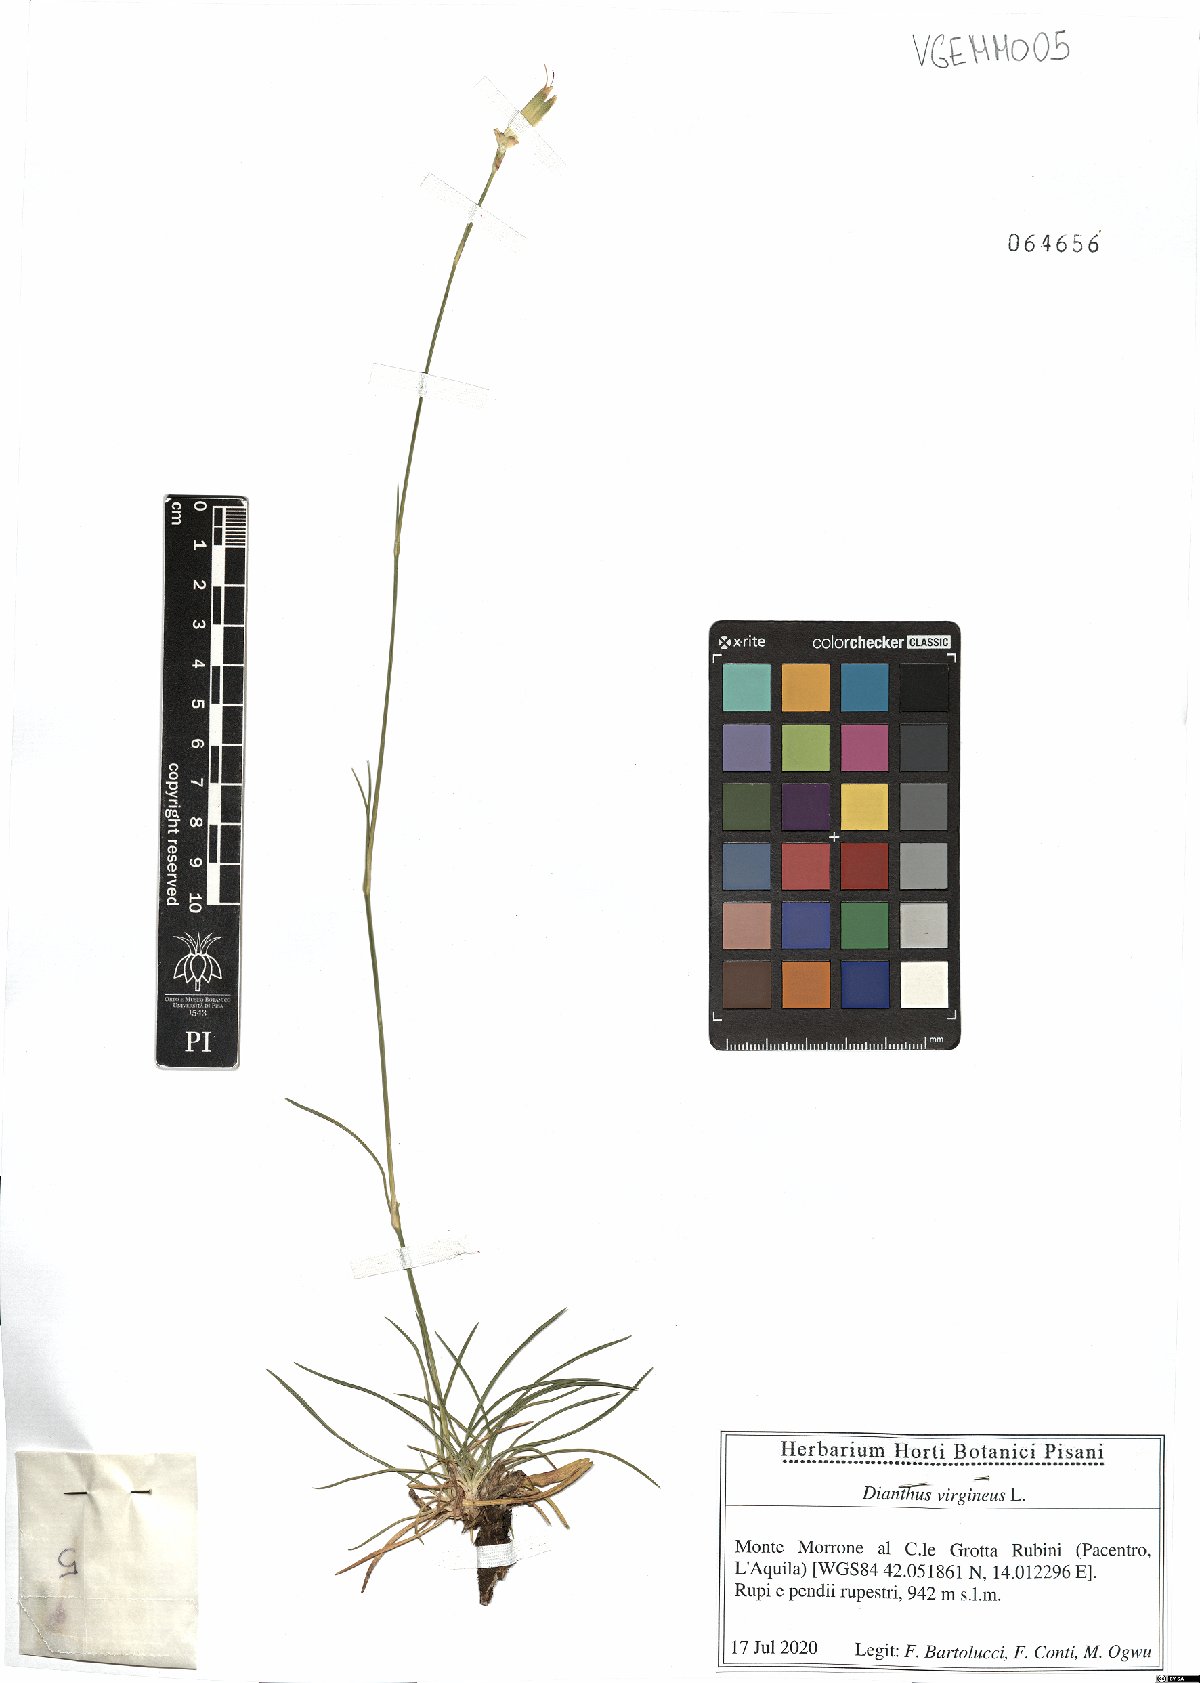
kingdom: Plantae
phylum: Tracheophyta
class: Magnoliopsida
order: Caryophyllales
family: Caryophyllaceae
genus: Dianthus
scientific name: Dianthus virgineus
